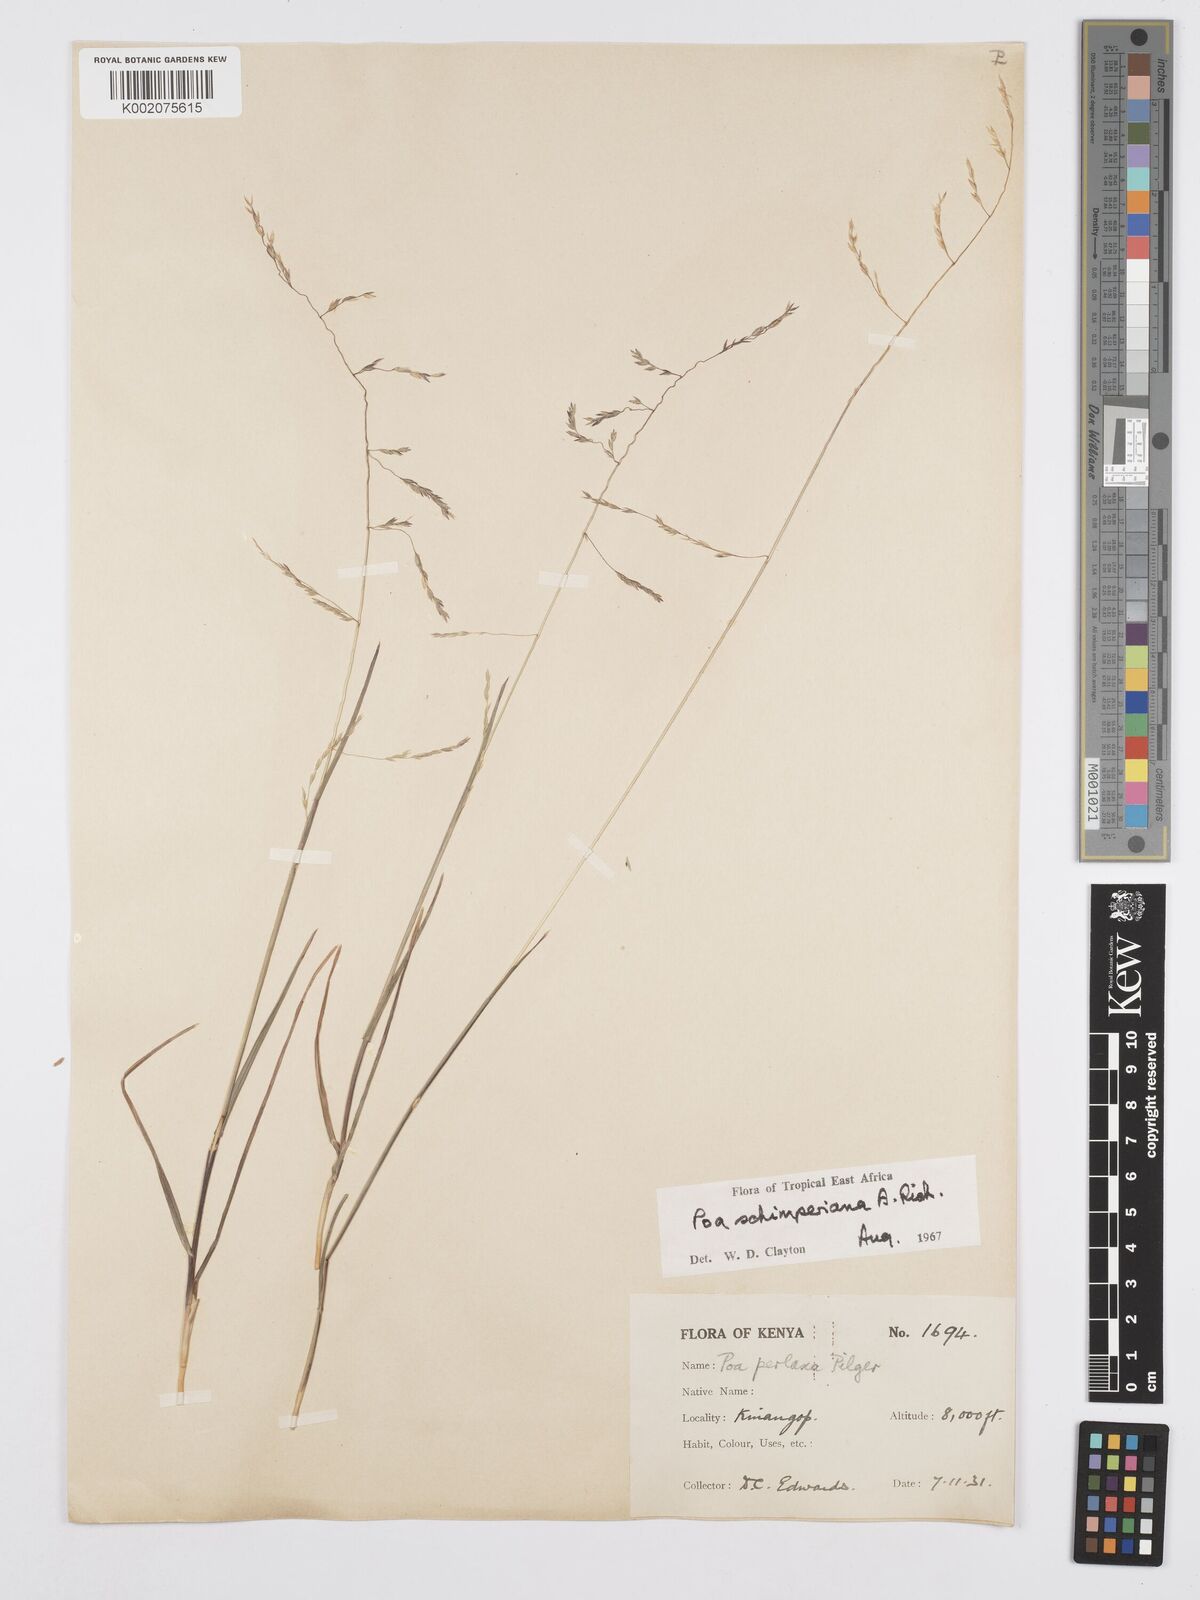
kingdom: Plantae
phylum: Tracheophyta
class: Liliopsida
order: Poales
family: Poaceae
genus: Poa
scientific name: Poa schimperiana
